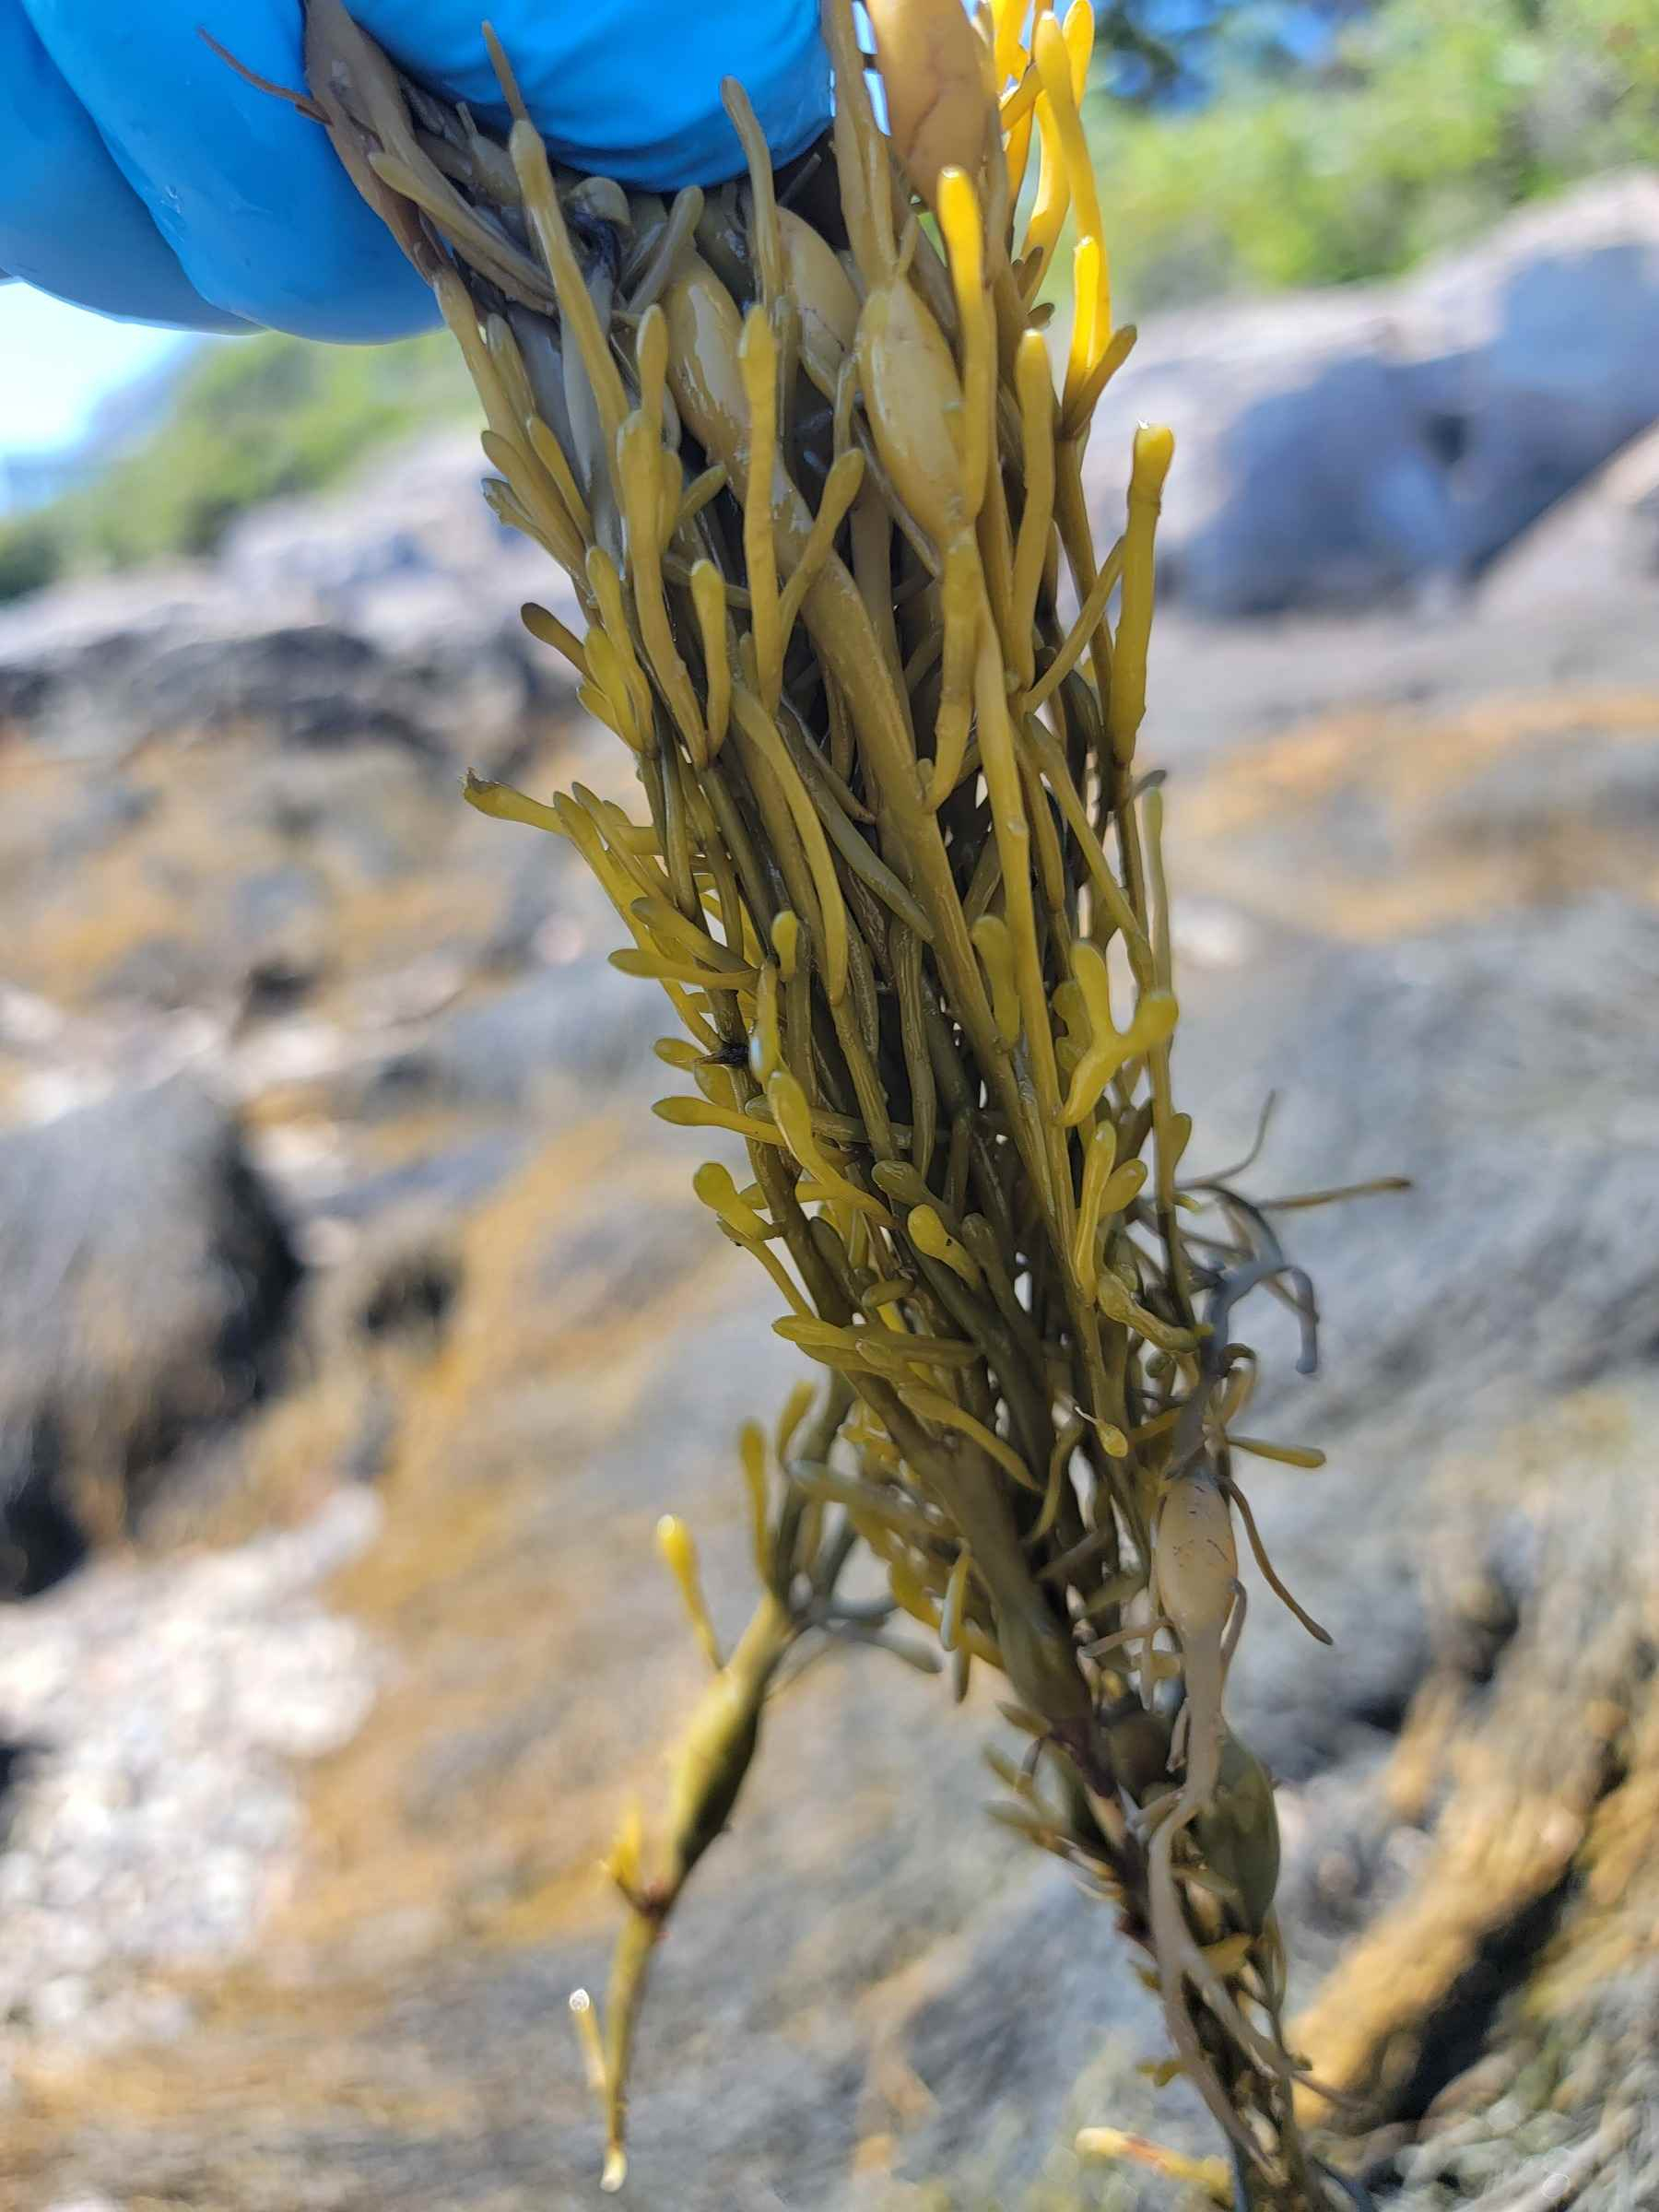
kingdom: Chromista
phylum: Ochrophyta
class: Phaeophyceae
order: Fucales
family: Fucaceae
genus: Ascophyllum
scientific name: Ascophyllum nodosum
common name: Rockweed
